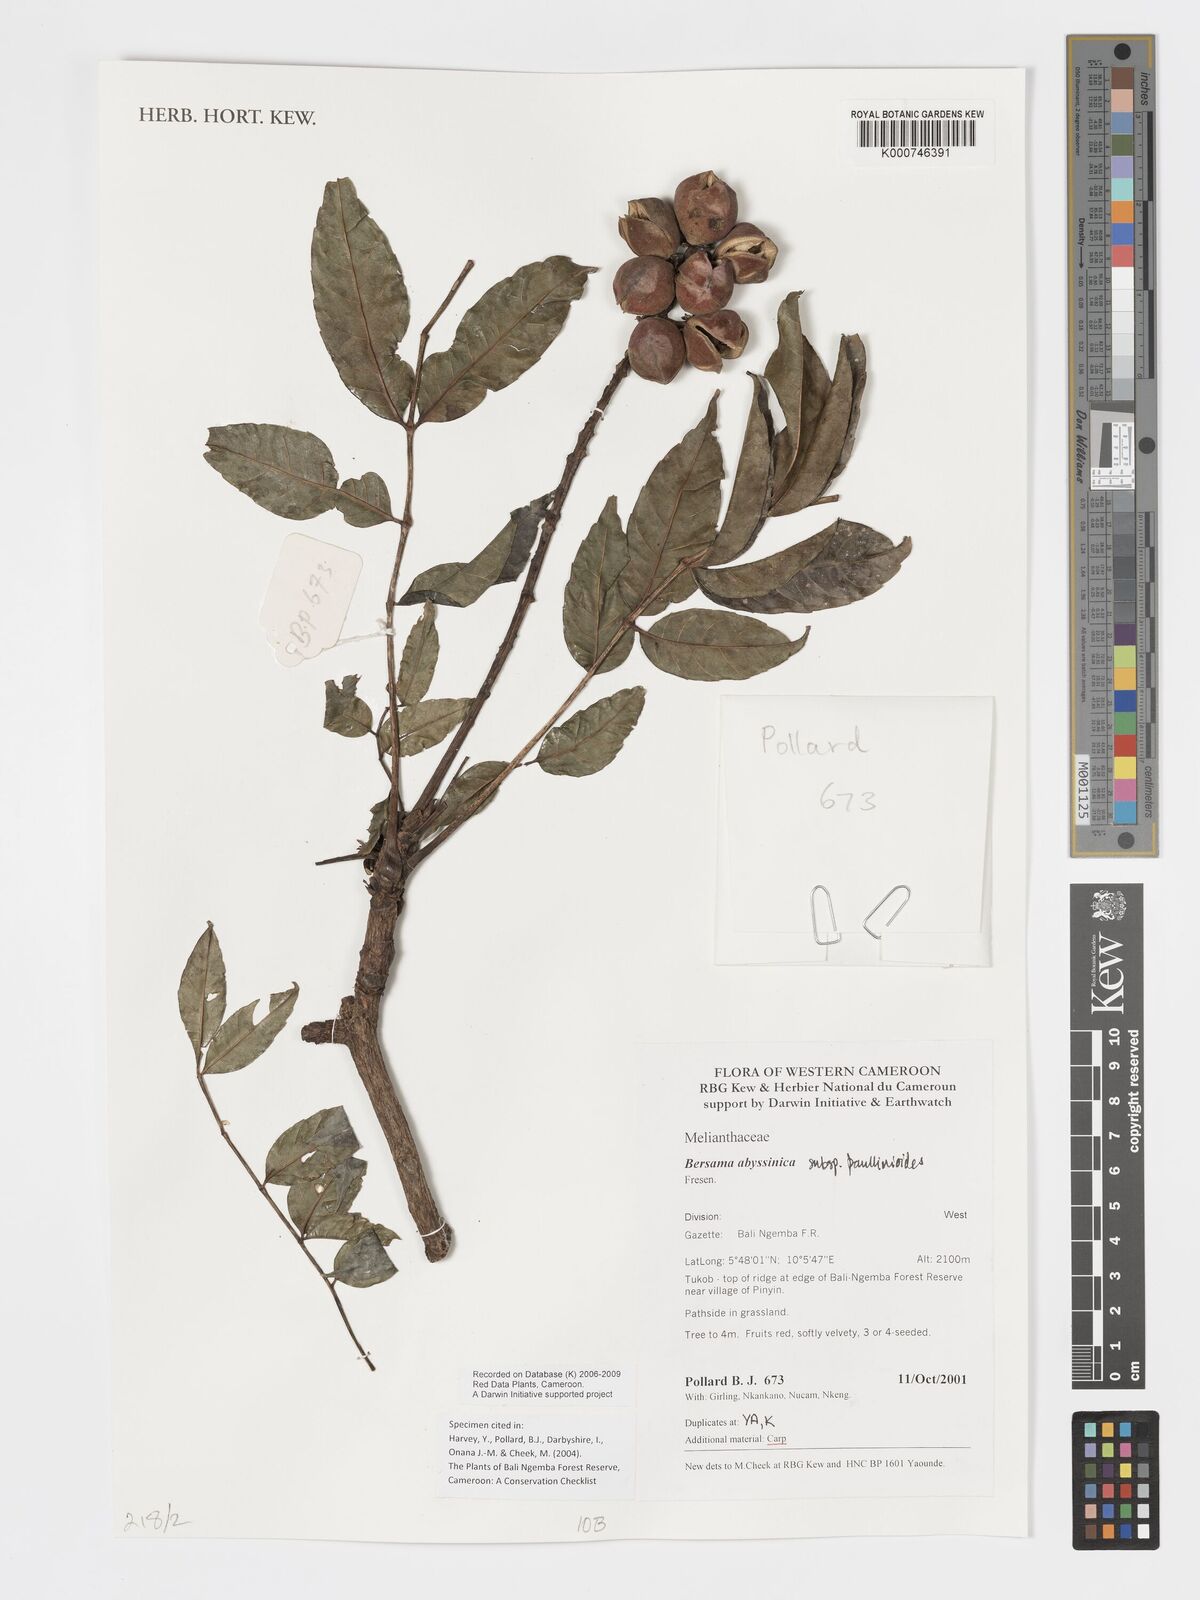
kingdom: Plantae
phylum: Tracheophyta
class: Magnoliopsida
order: Geraniales
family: Melianthaceae
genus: Bersama
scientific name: Bersama abyssinica
